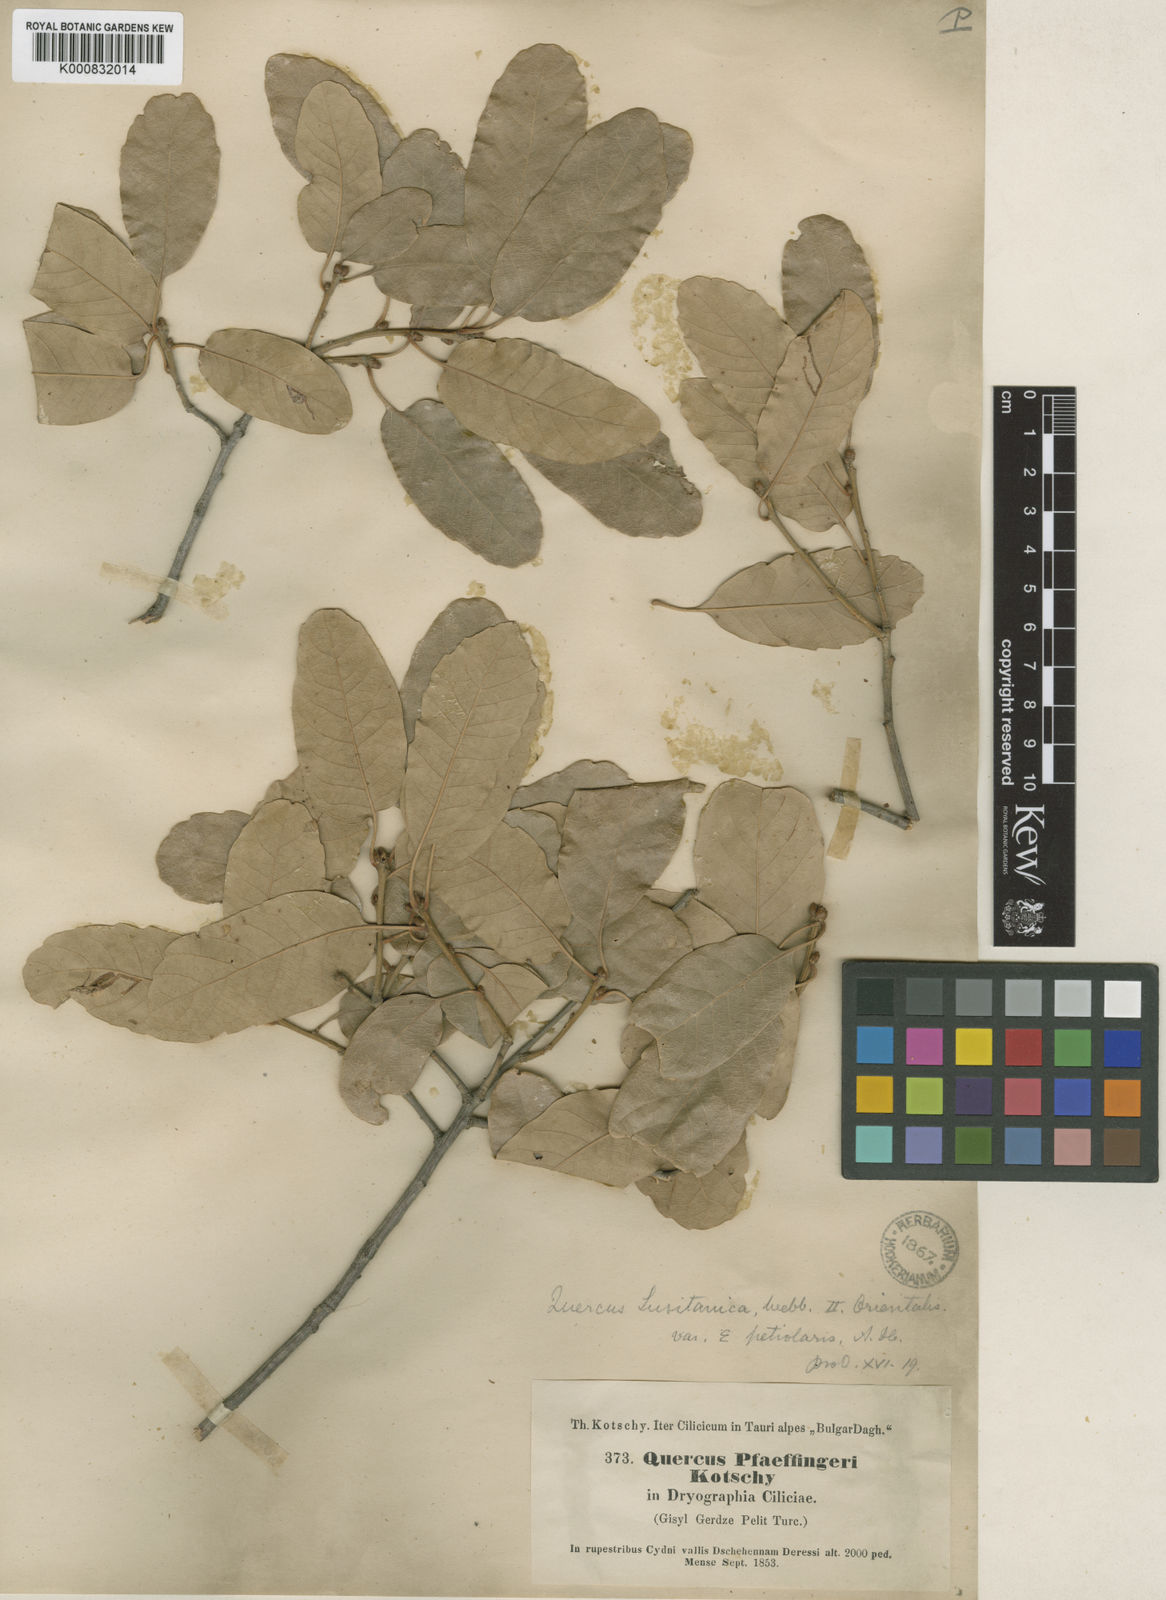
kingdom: Plantae
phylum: Tracheophyta
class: Magnoliopsida
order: Fagales
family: Fagaceae
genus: Quercus
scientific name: Quercus infectoria
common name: Aleppo oak
